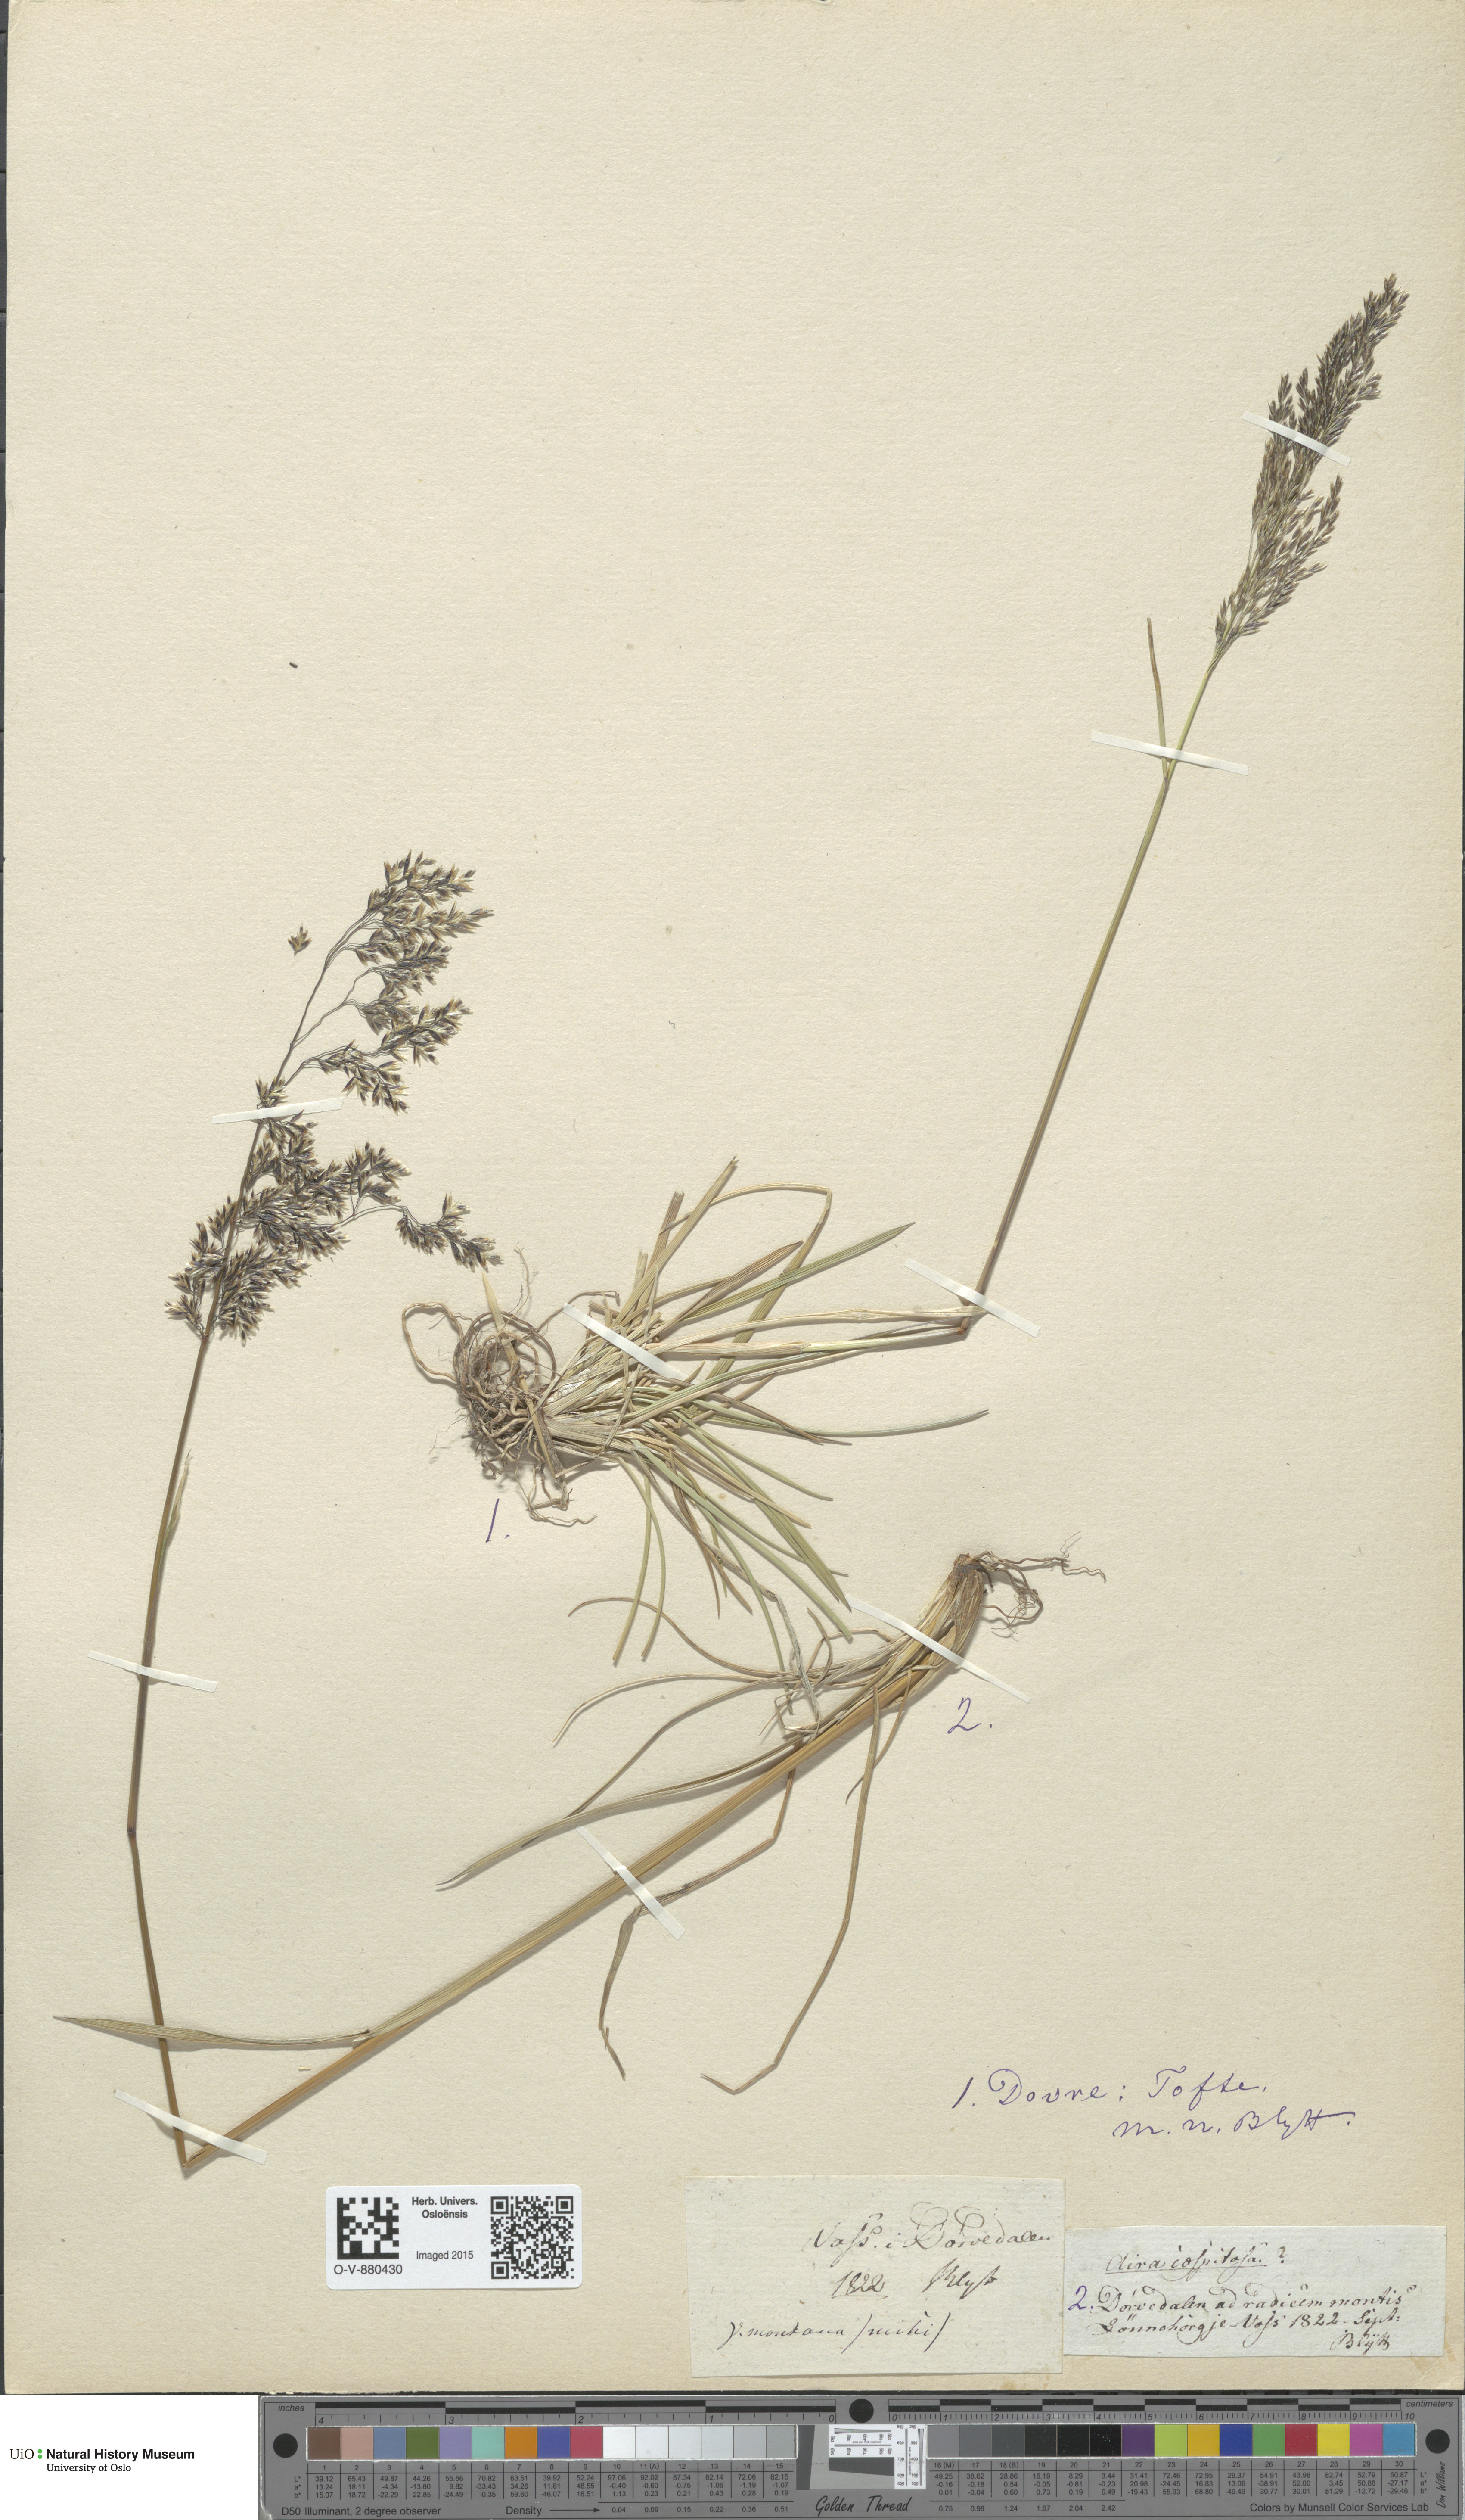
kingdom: Plantae
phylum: Tracheophyta
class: Liliopsida
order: Poales
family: Poaceae
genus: Deschampsia
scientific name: Deschampsia cespitosa
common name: Tufted hair-grass
